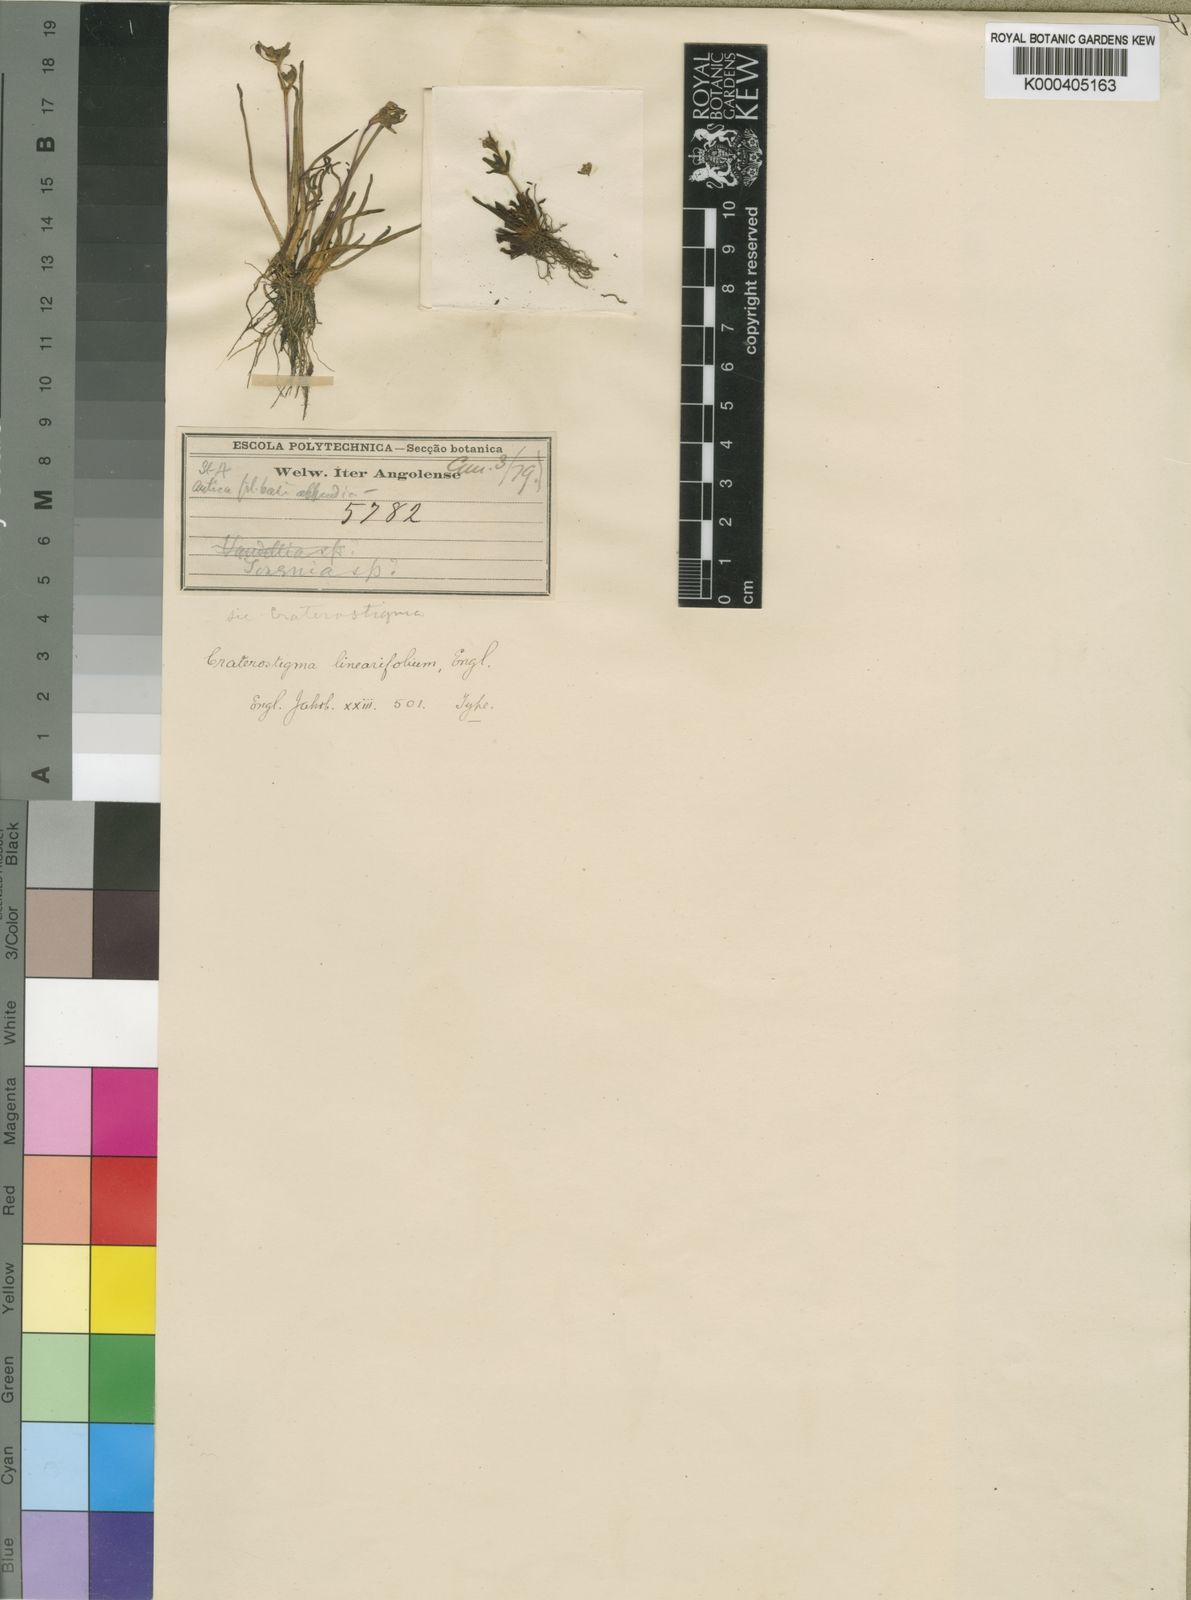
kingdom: Plantae
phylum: Tracheophyta
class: Magnoliopsida
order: Lamiales
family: Linderniaceae
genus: Lindernia
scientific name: Lindernia linearifolia
